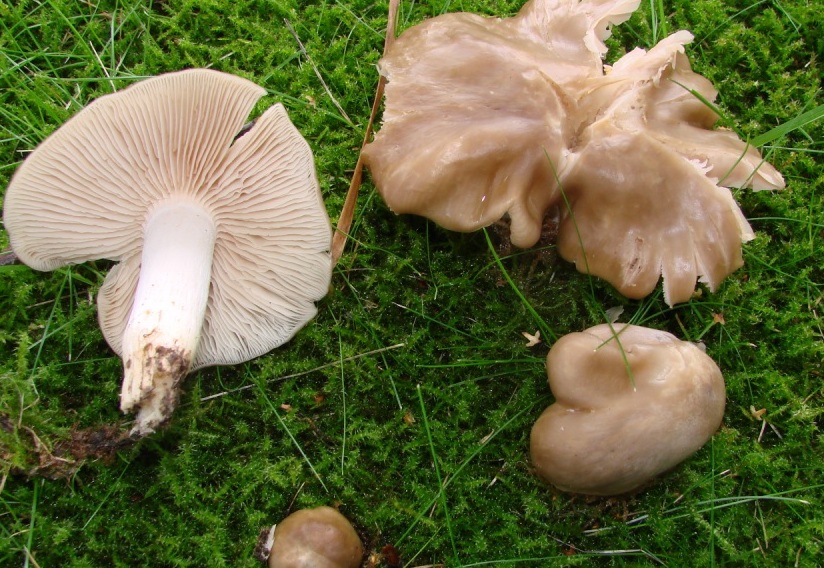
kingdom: Fungi
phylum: Basidiomycota
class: Agaricomycetes
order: Agaricales
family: Entolomataceae
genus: Entoloma
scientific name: Entoloma lividoalbum
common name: lysstokket rødblad
